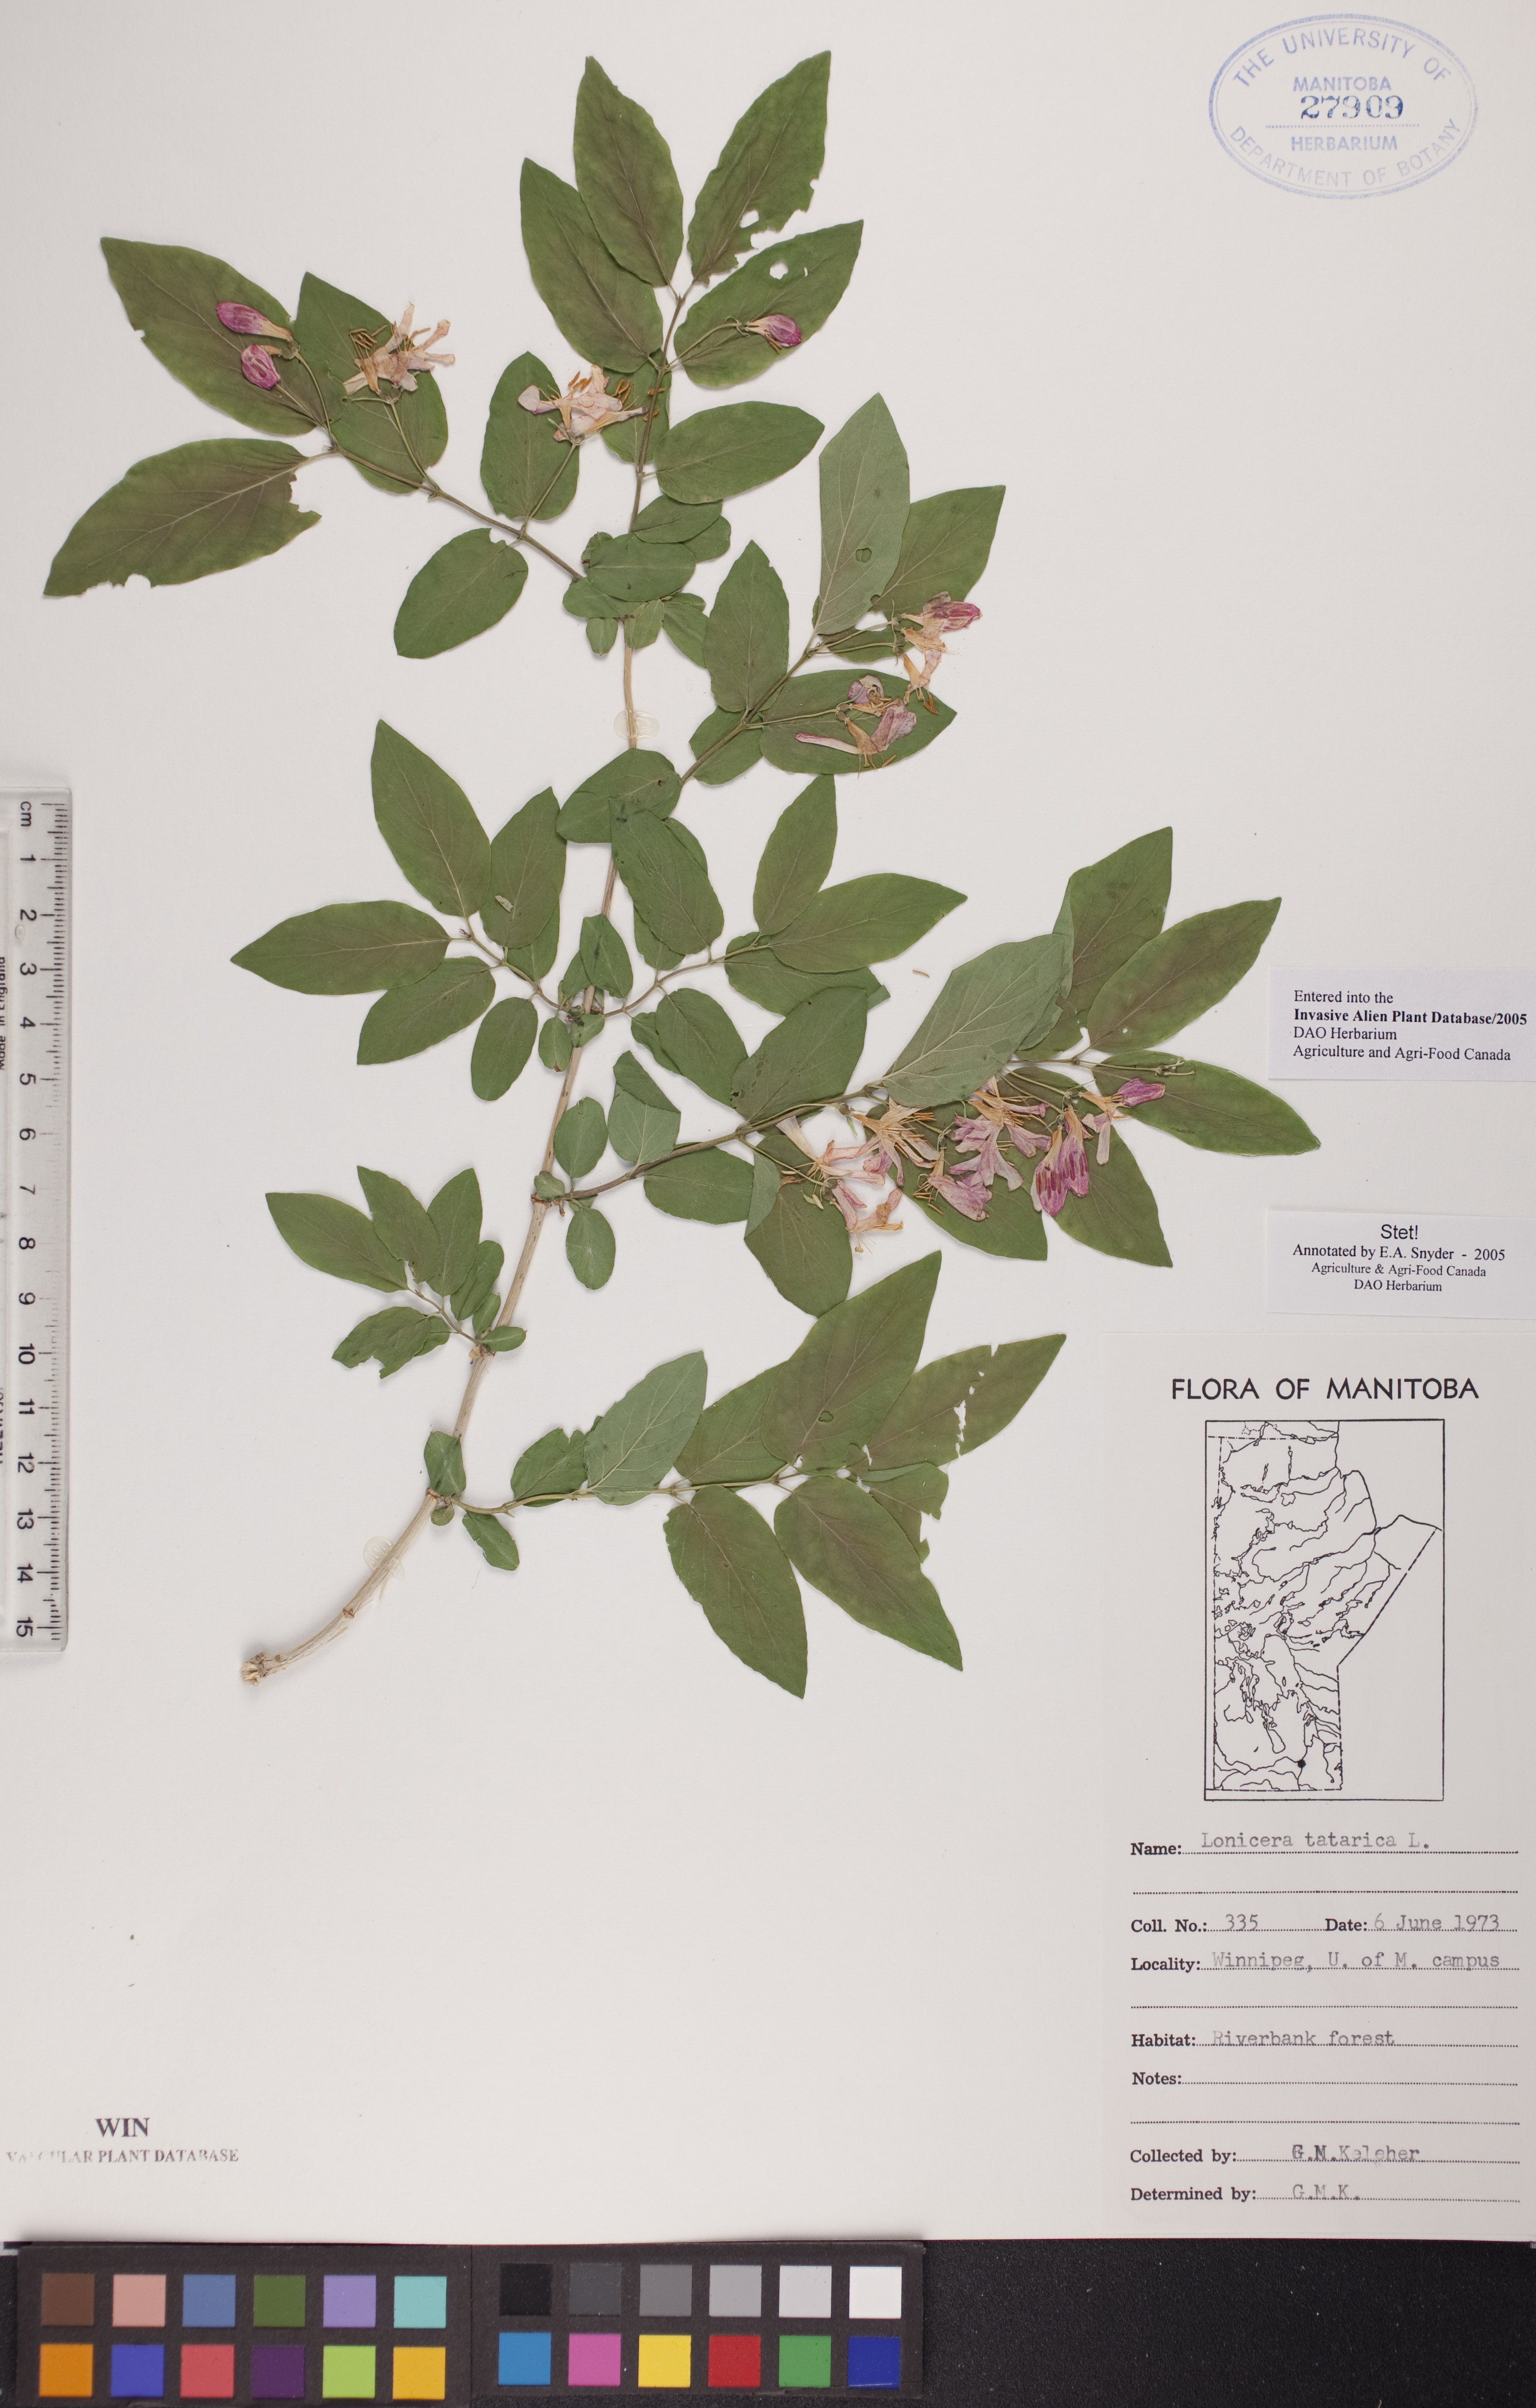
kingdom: Plantae
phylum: Tracheophyta
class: Magnoliopsida
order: Dipsacales
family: Caprifoliaceae
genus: Lonicera
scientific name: Lonicera tatarica
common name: Tatarian honeysuckle
